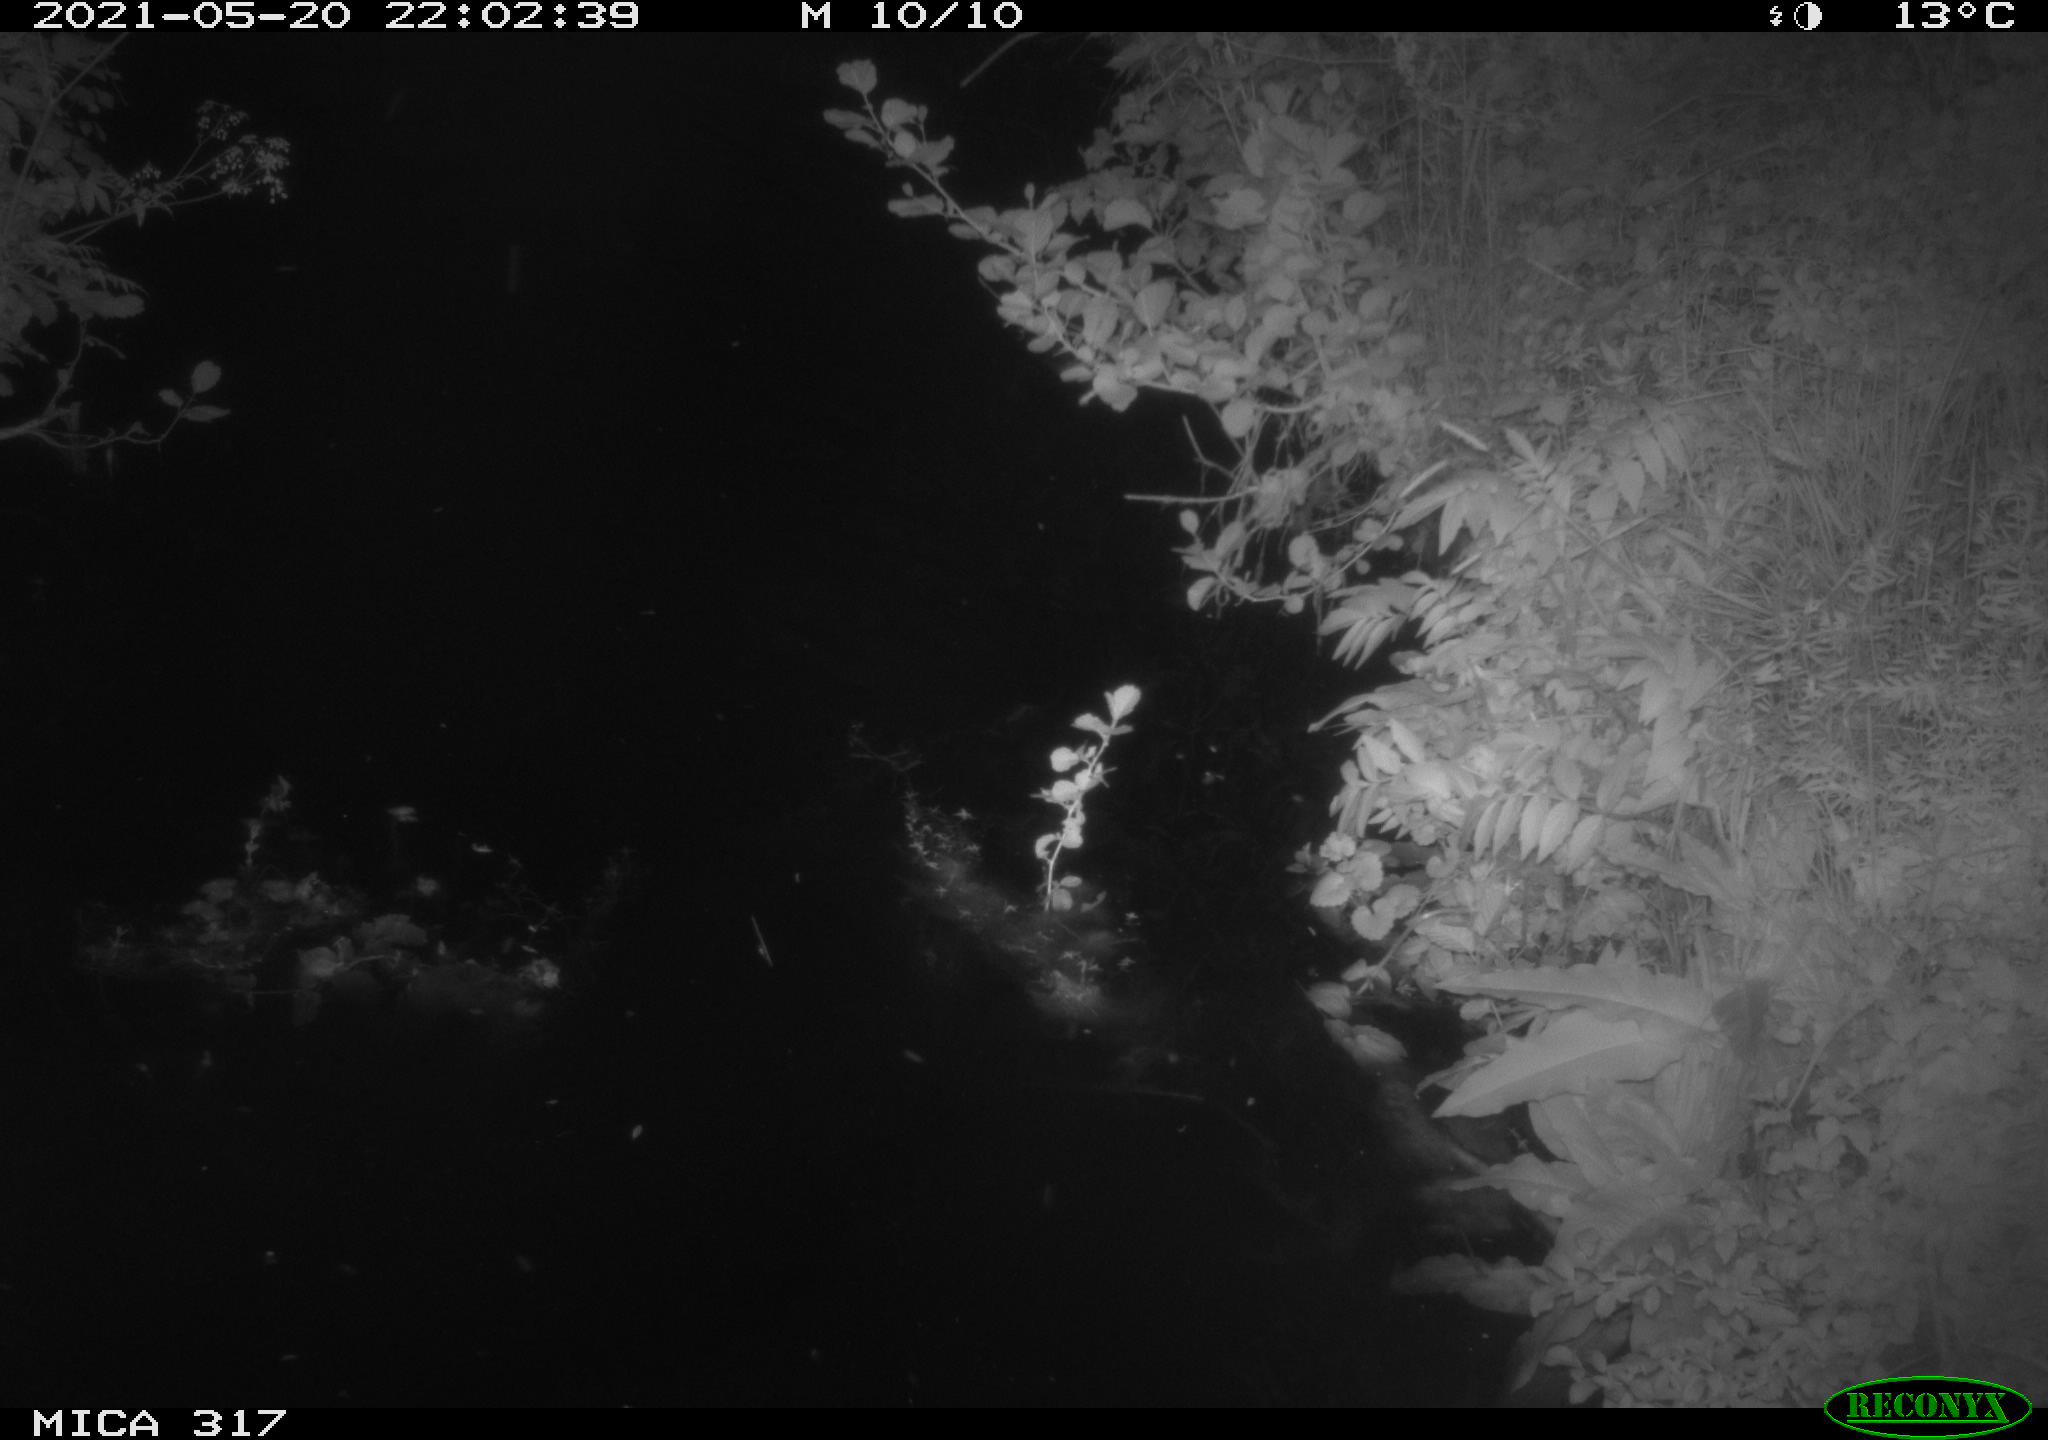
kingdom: Animalia
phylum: Chordata
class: Aves
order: Anseriformes
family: Anatidae
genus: Anas
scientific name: Anas
